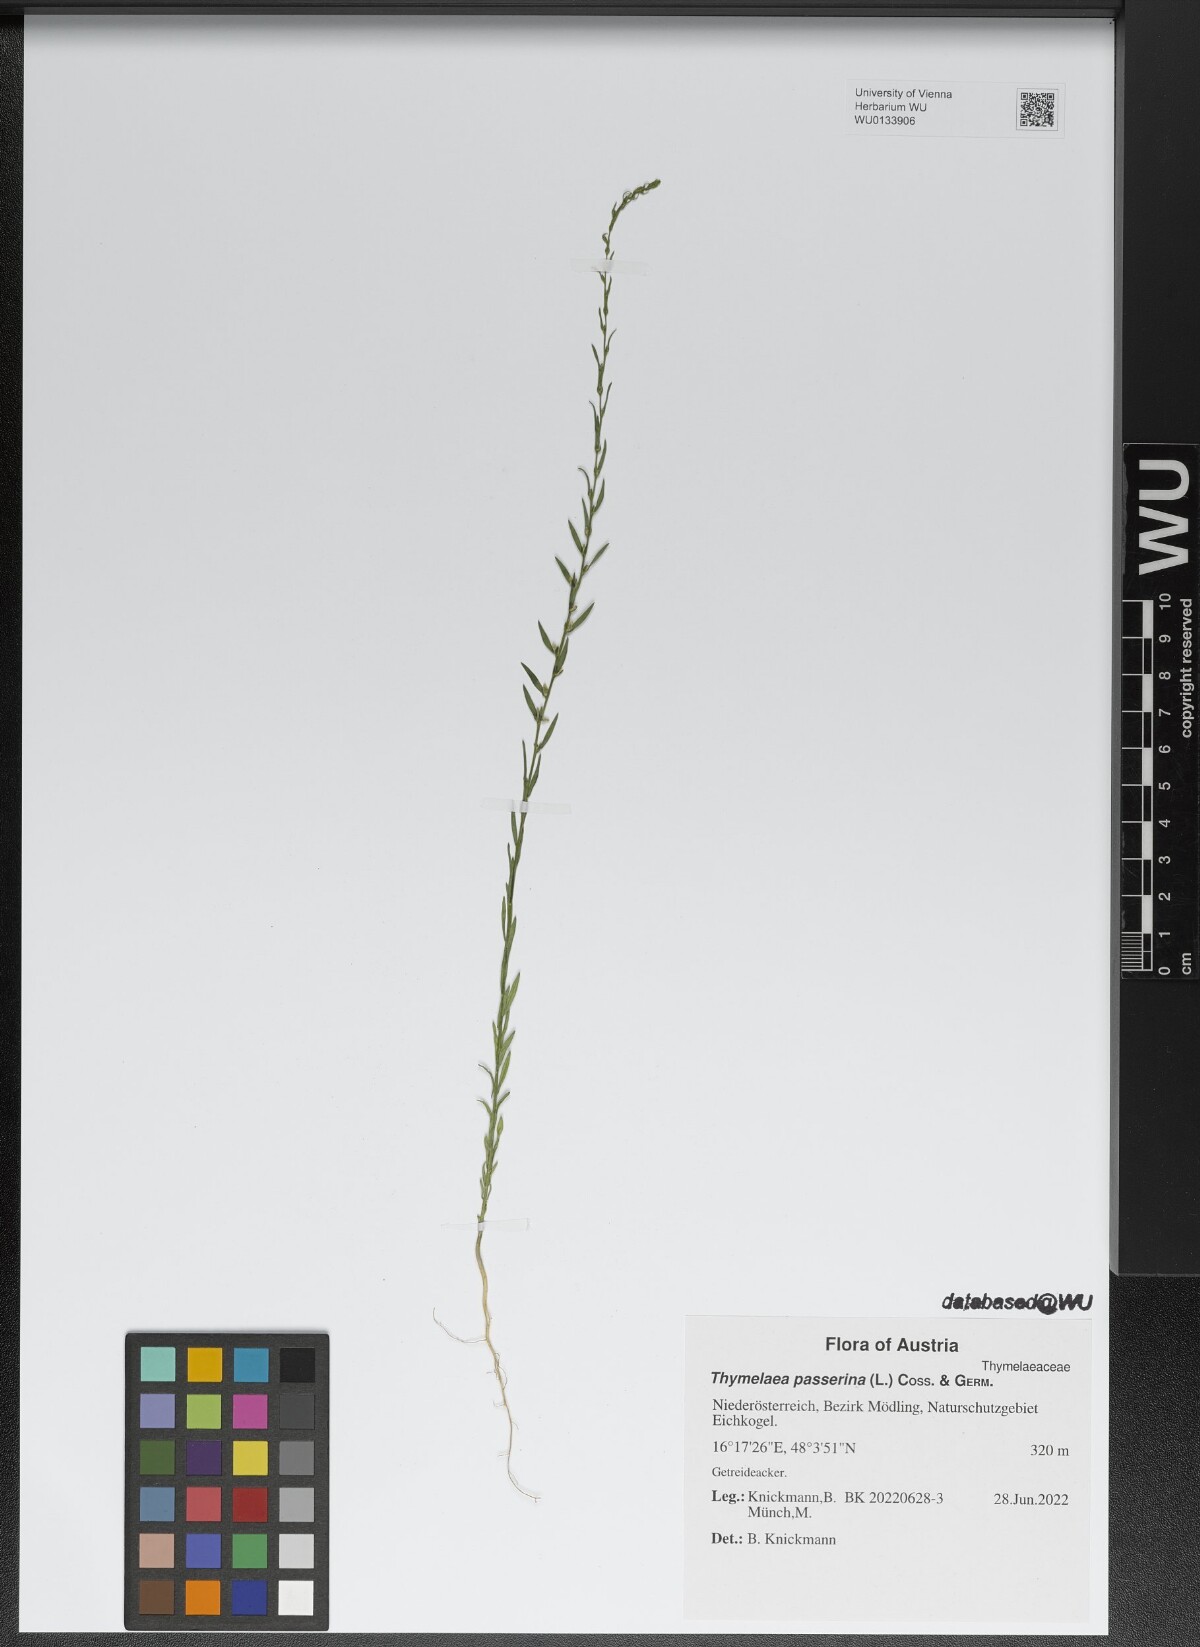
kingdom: Plantae
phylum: Tracheophyta
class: Magnoliopsida
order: Malvales
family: Thymelaeaceae
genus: Thymelaea
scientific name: Thymelaea passerina
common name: Annual thymelaea
